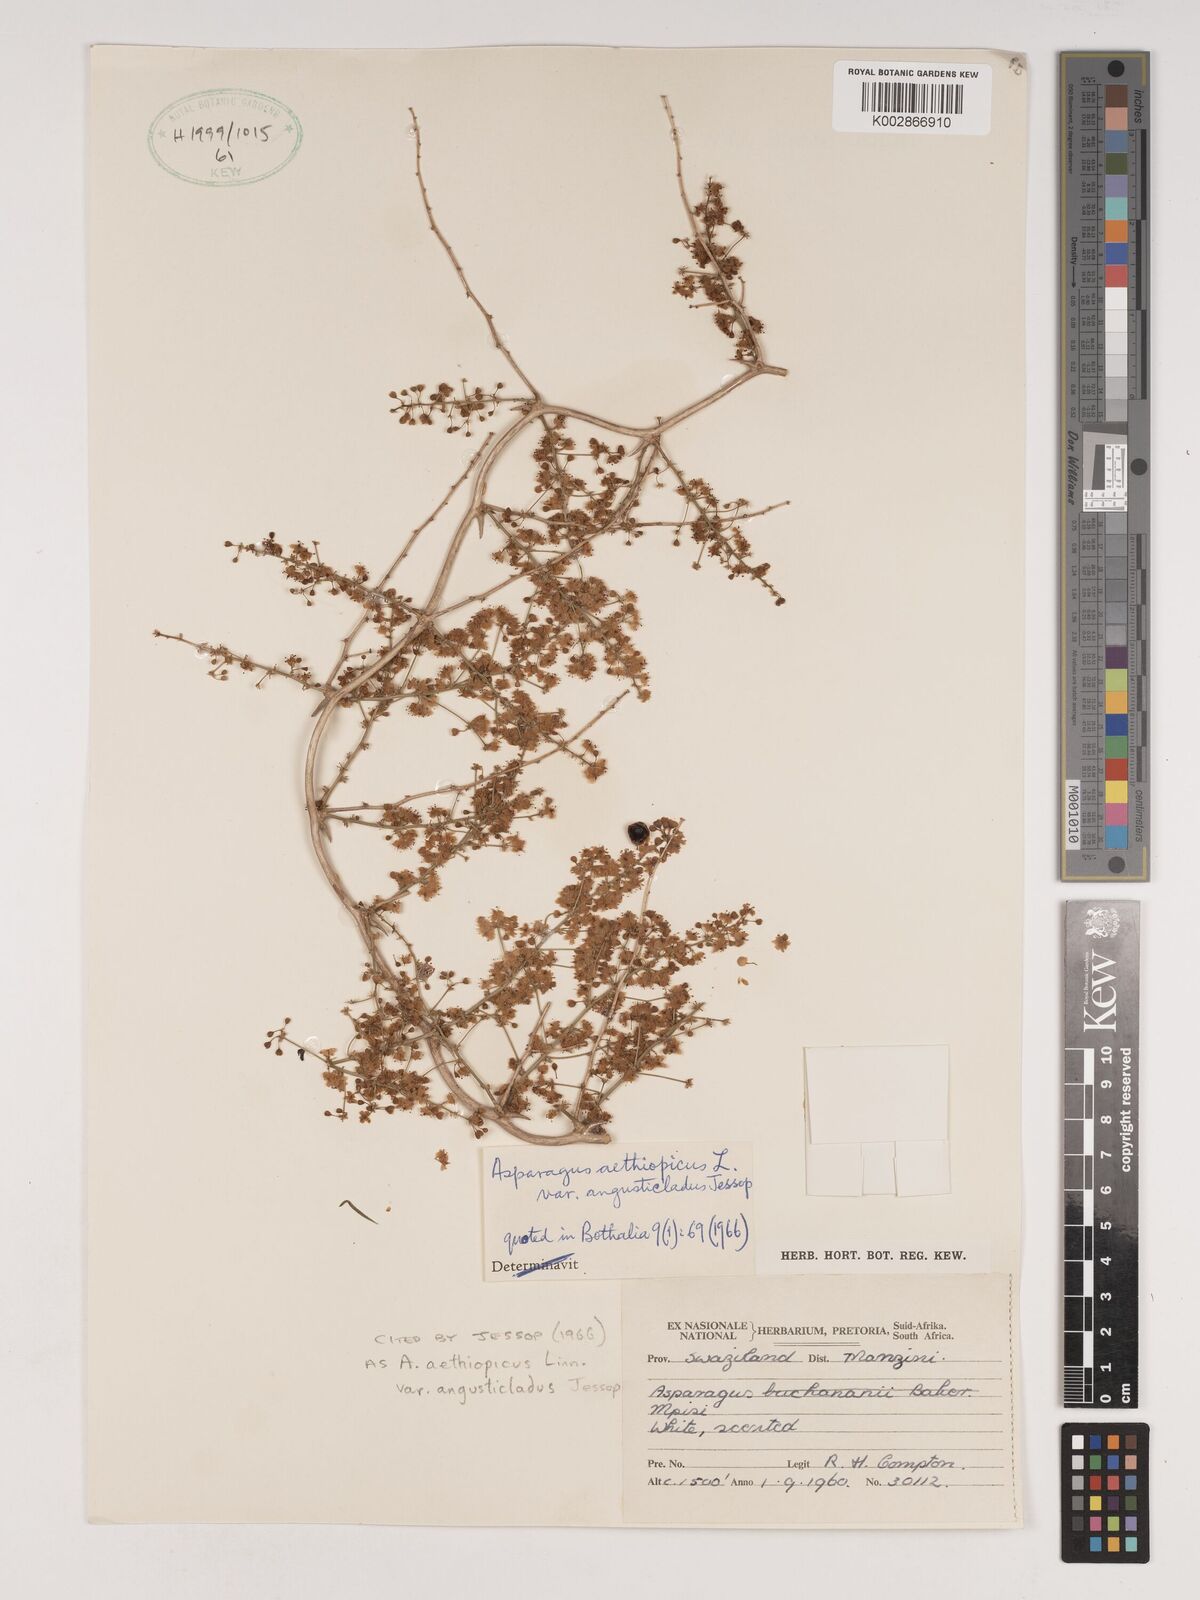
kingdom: Plantae
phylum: Tracheophyta
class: Liliopsida
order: Asparagales
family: Asparagaceae
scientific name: Asparagaceae
